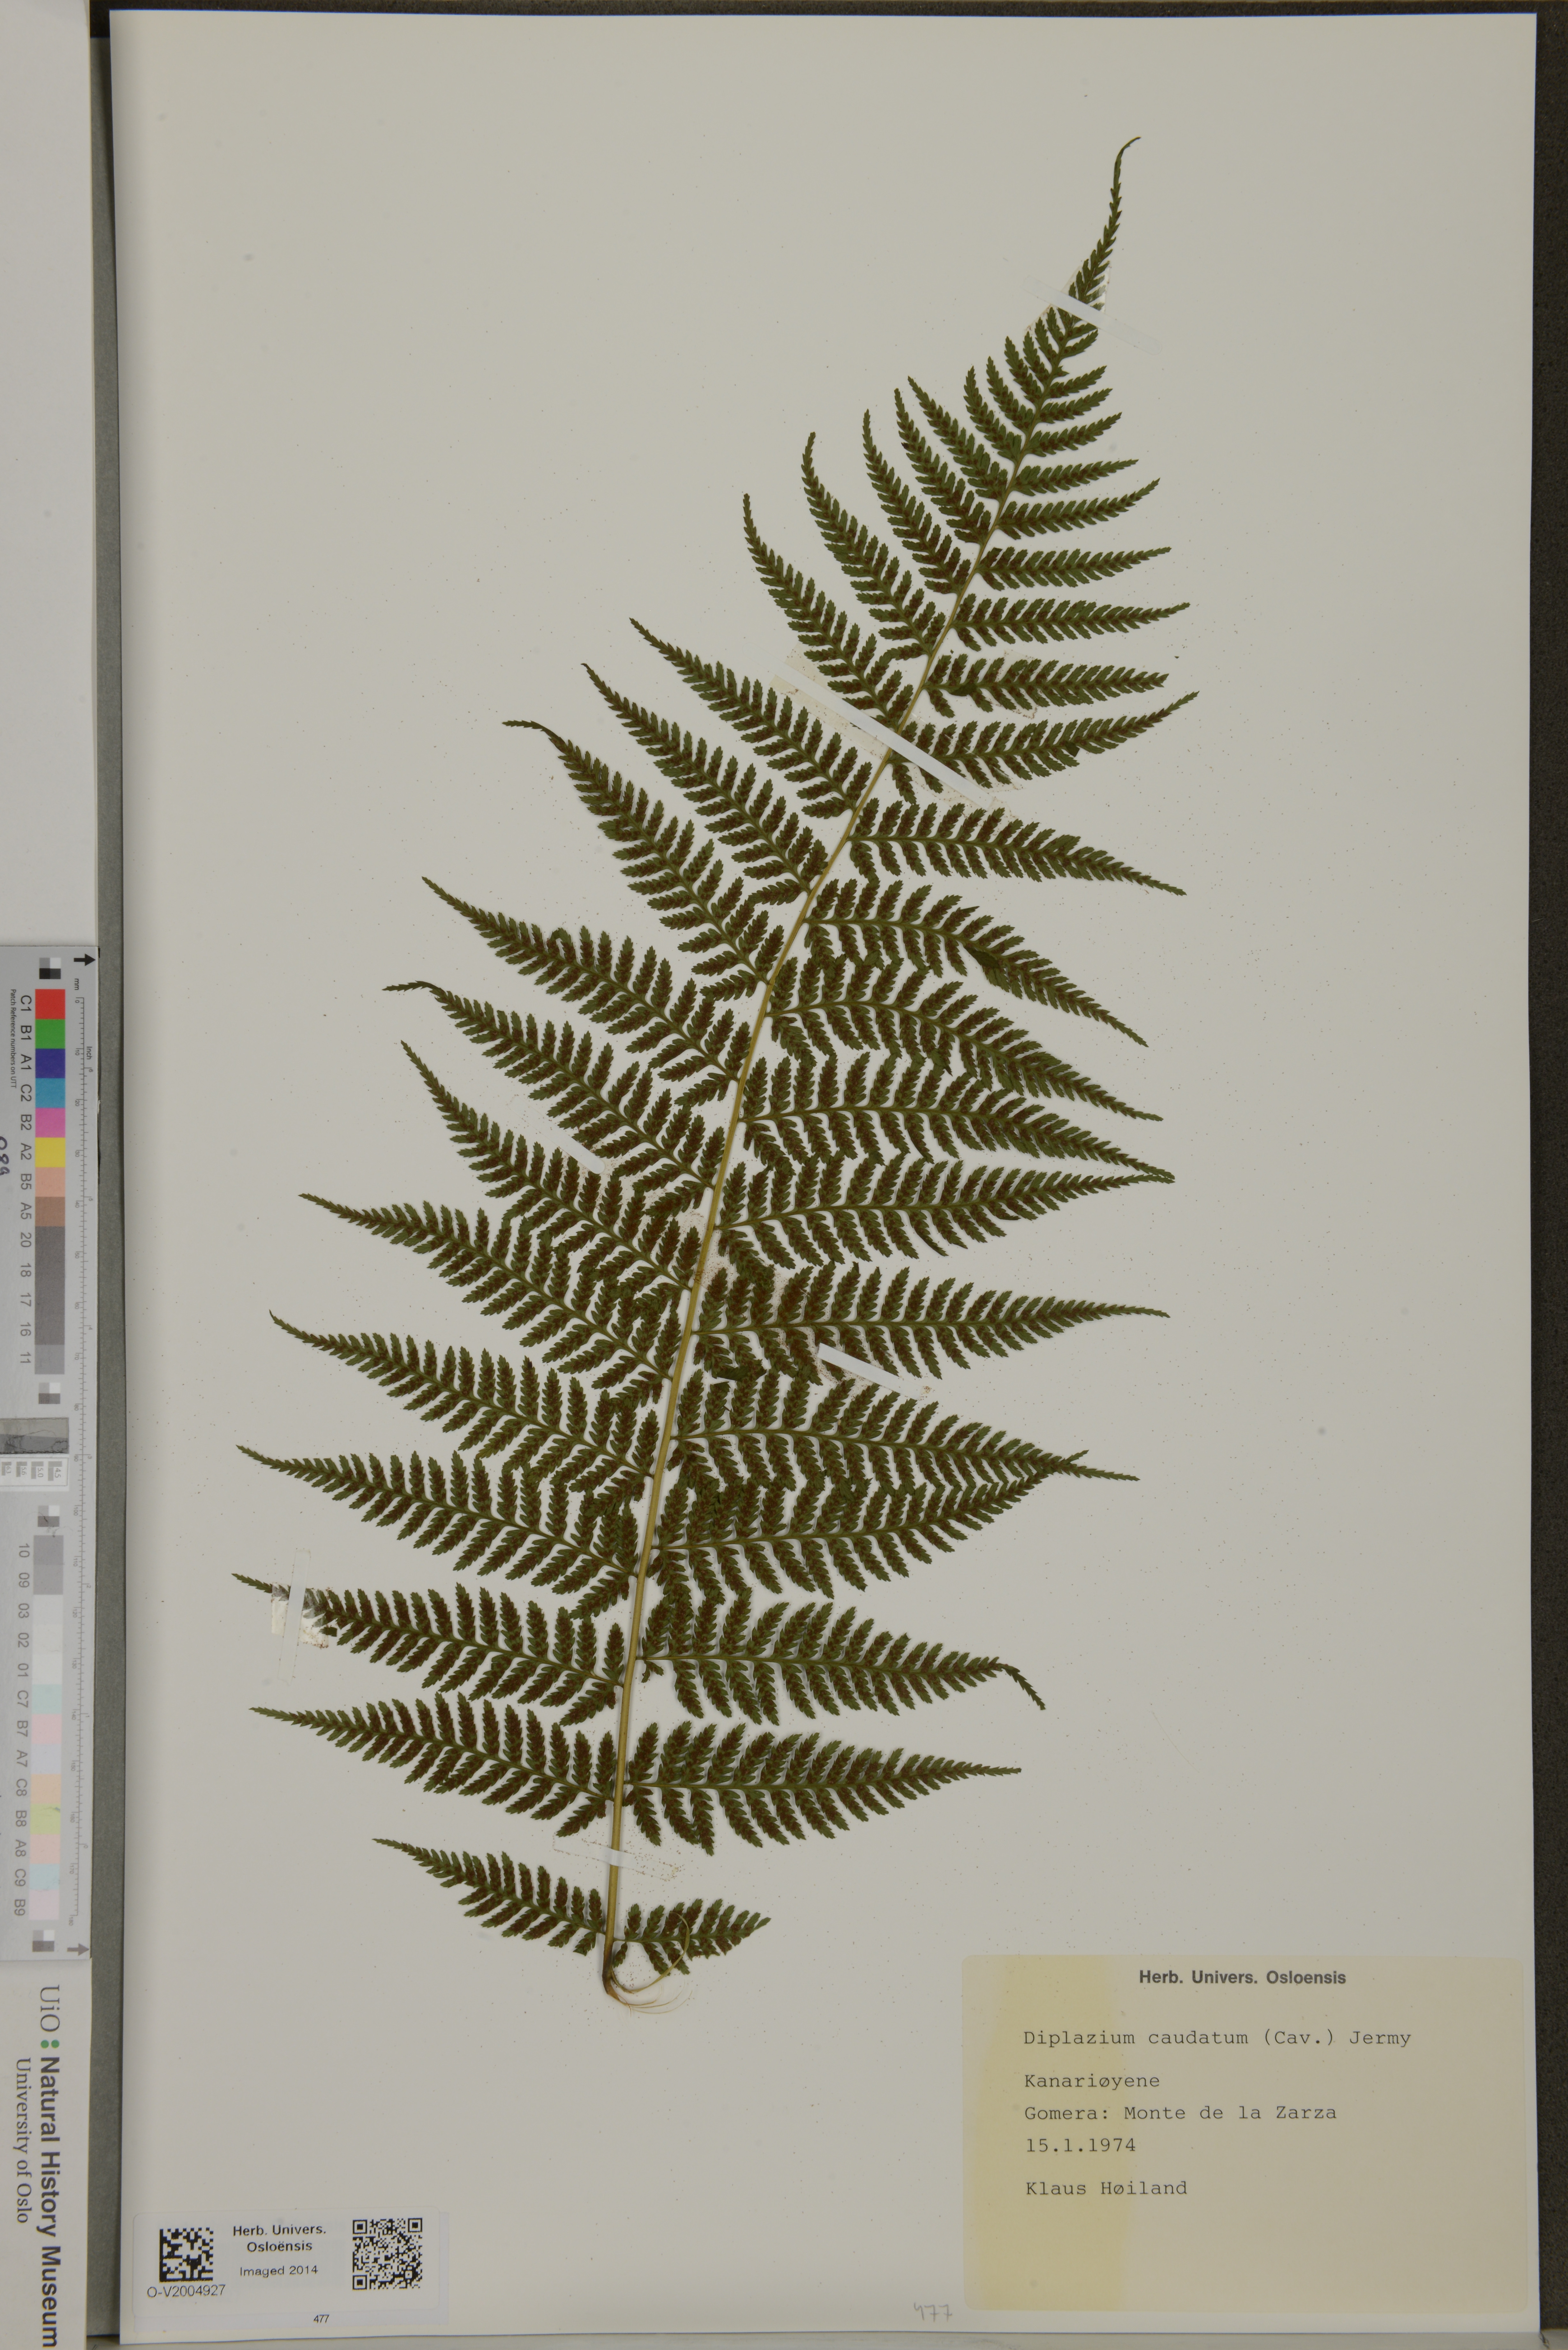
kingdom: Plantae
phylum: Tracheophyta
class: Polypodiopsida
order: Polypodiales
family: Athyriaceae
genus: Diplazium
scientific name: Diplazium caudatum
